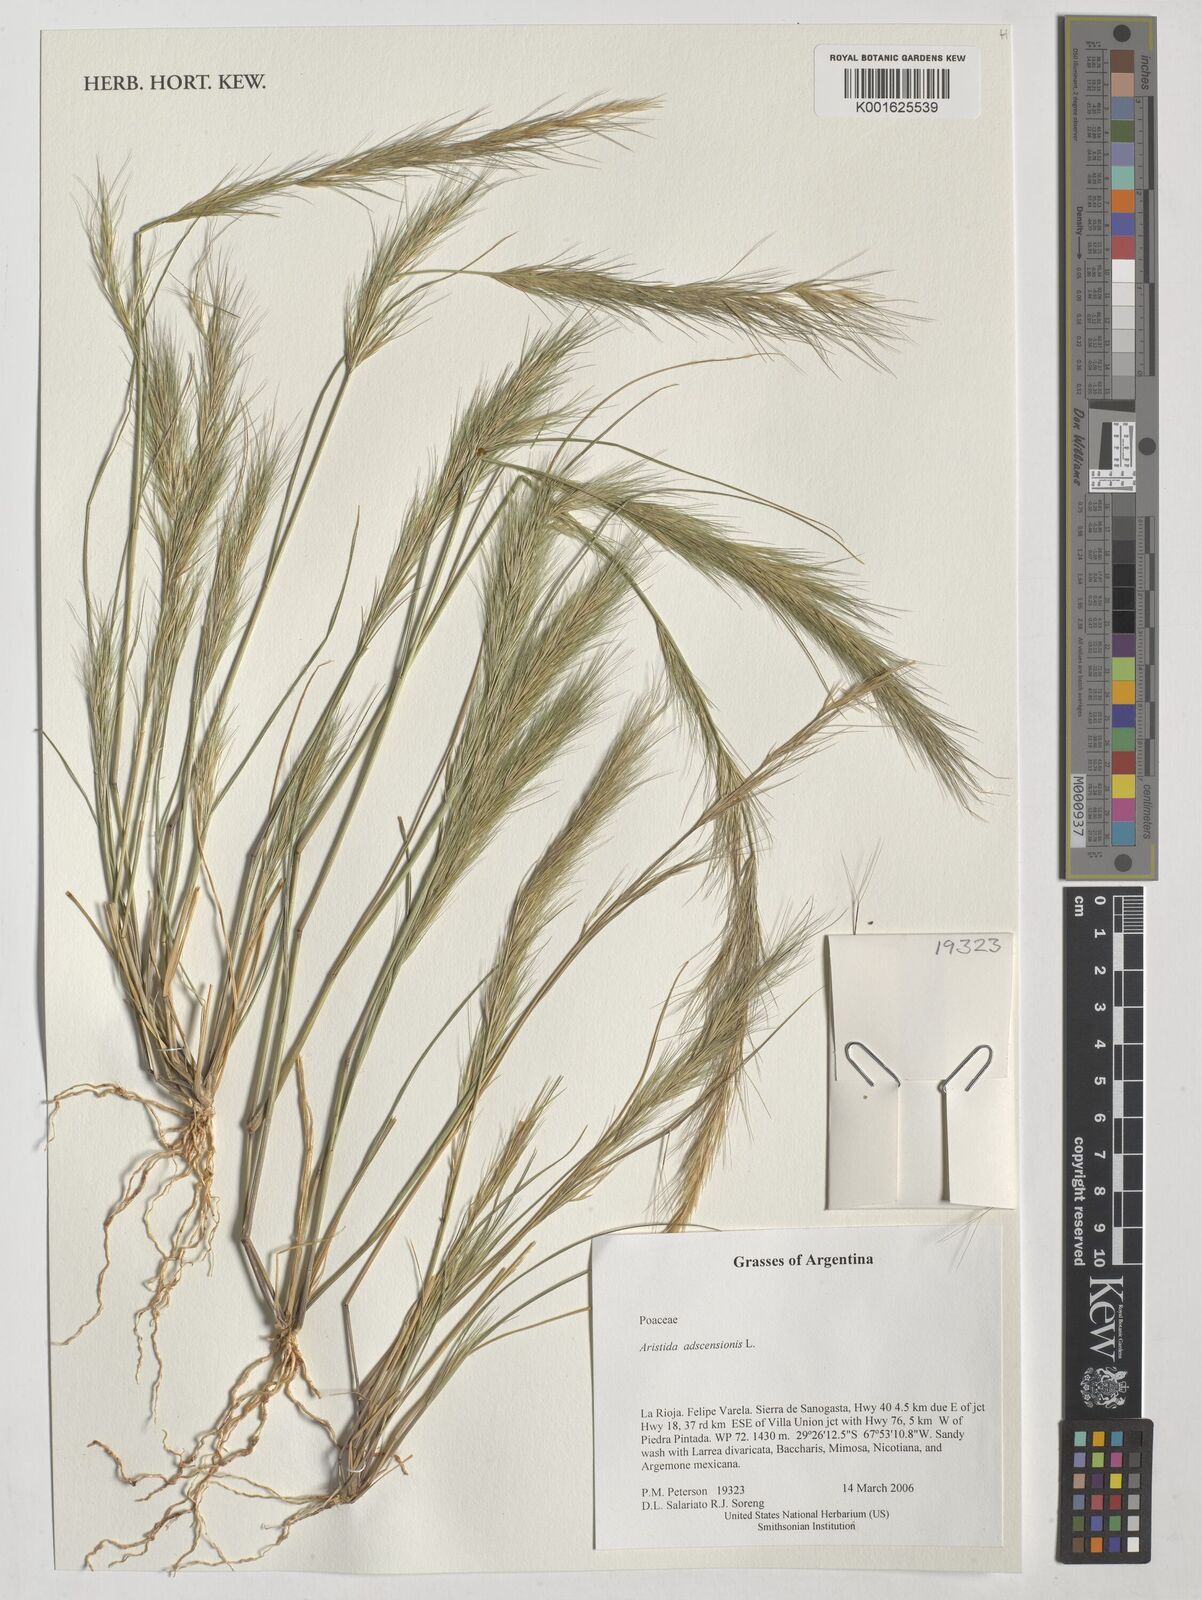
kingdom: Plantae
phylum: Tracheophyta
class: Liliopsida
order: Poales
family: Poaceae
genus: Aristida
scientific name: Aristida adscensionis
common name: Sixweeks threeawn
